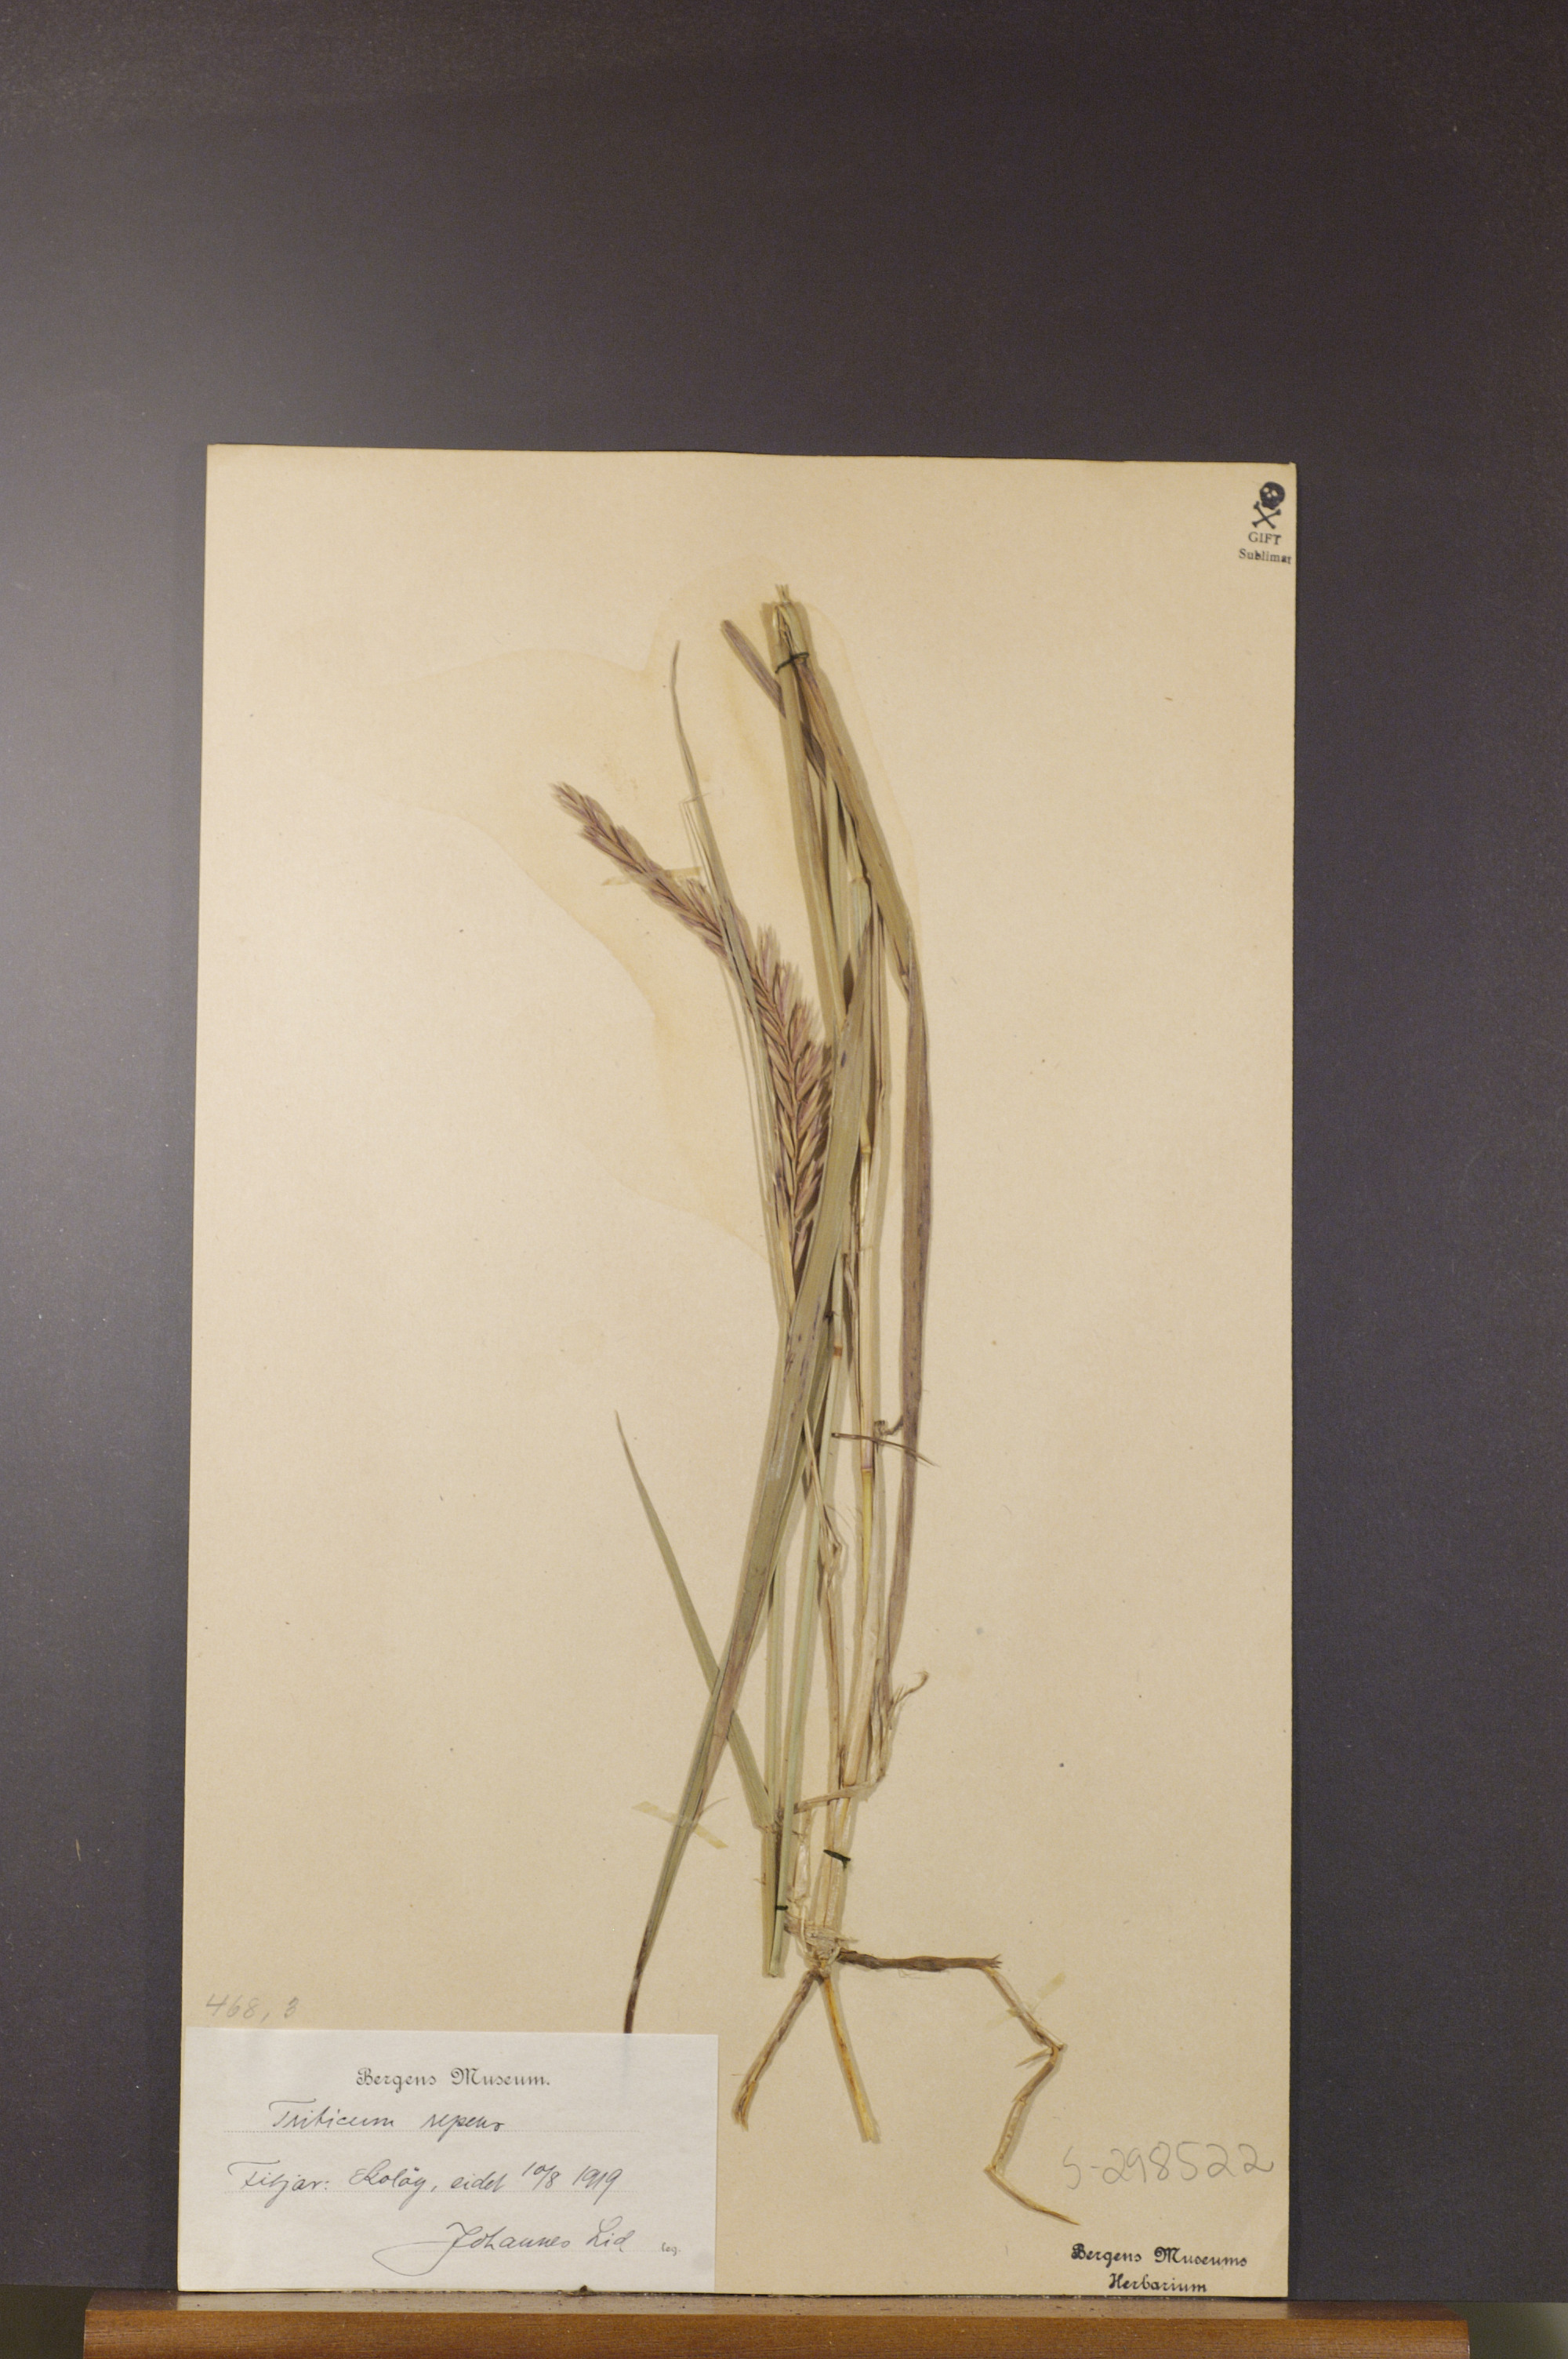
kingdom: Plantae
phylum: Tracheophyta
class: Liliopsida
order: Poales
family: Poaceae
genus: Elymus
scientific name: Elymus repens
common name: Quackgrass
